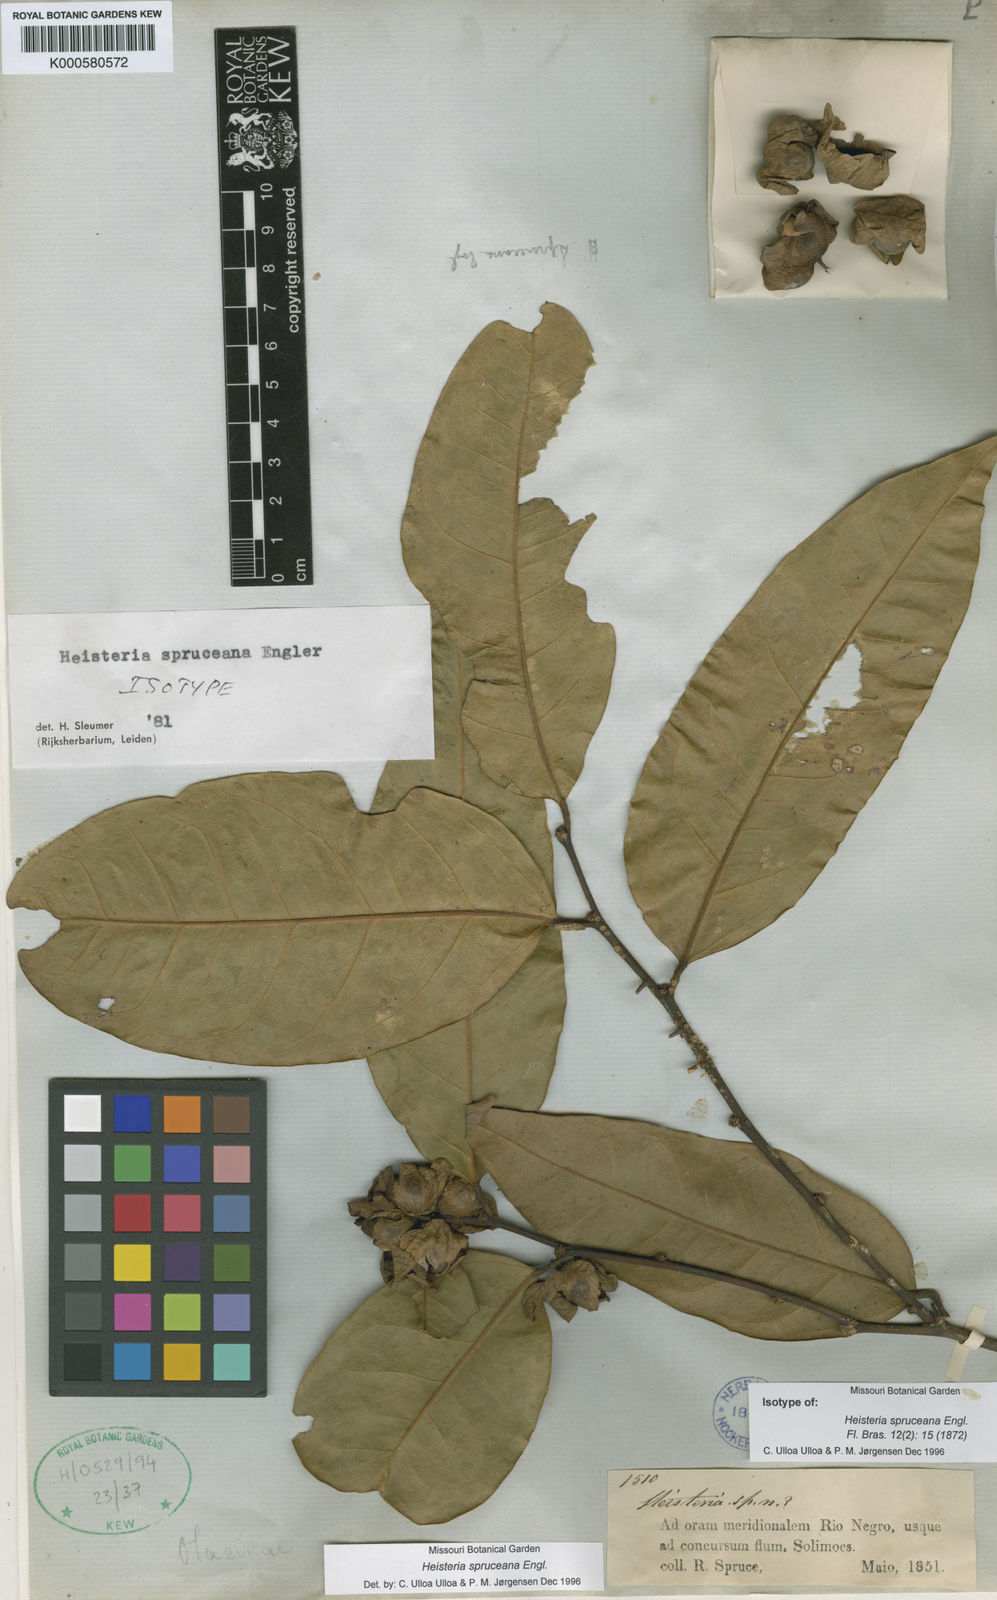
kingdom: Plantae
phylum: Tracheophyta
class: Magnoliopsida
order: Santalales
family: Erythropalaceae
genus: Heisteria
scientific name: Heisteria spruceana
